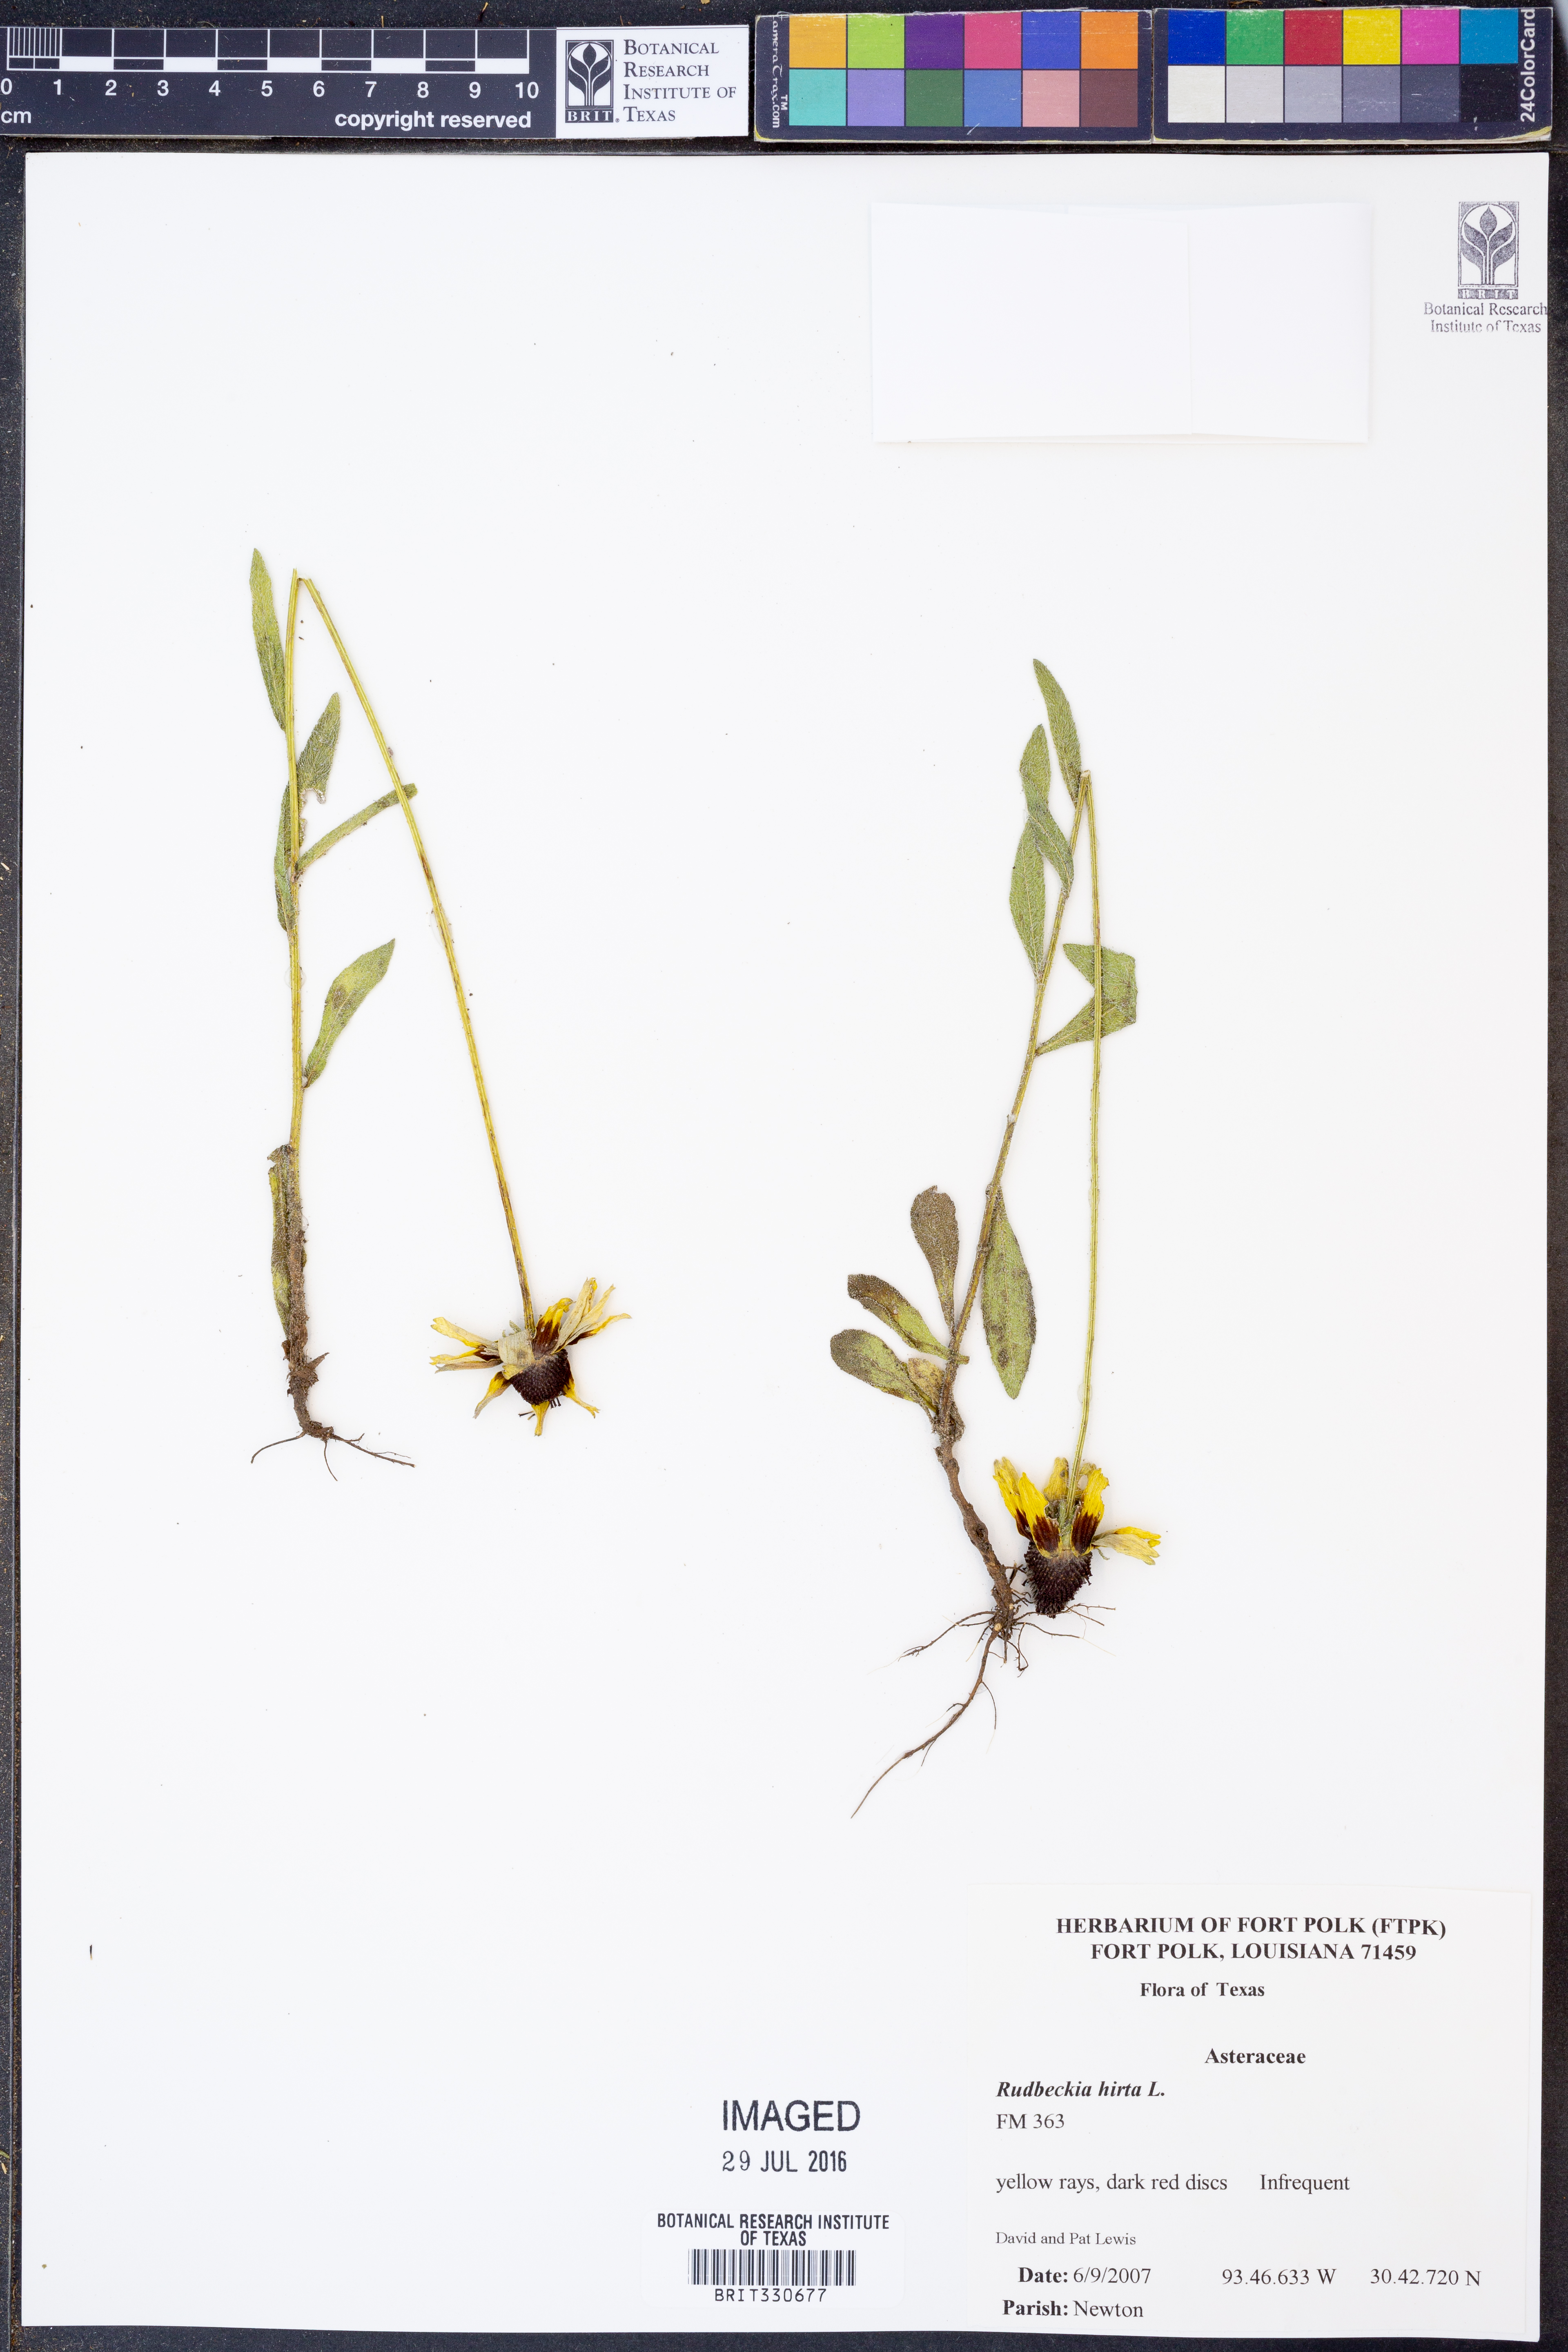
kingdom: Plantae
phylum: Tracheophyta
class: Magnoliopsida
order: Asterales
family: Asteraceae
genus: Rudbeckia
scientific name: Rudbeckia hirta
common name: Black-eyed-susan
